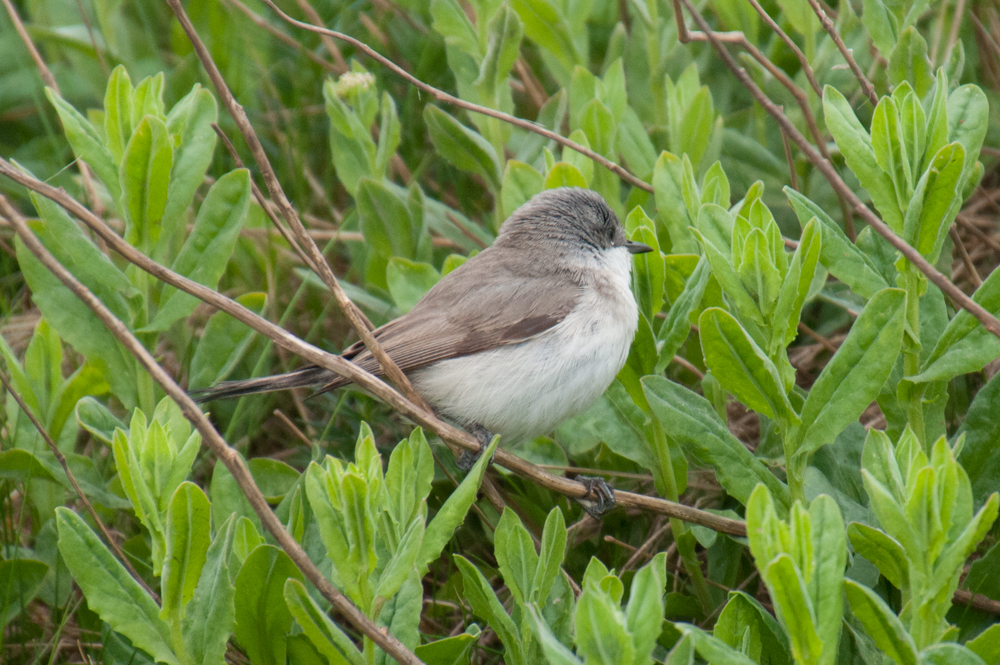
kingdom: Animalia
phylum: Chordata
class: Aves
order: Passeriformes
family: Sylviidae
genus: Sylvia
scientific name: Sylvia curruca
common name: Lesser whitethroat
